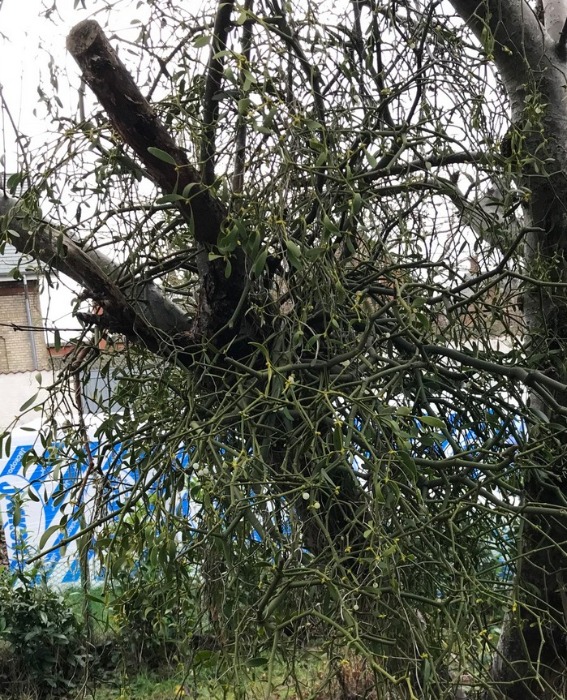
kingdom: Plantae
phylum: Tracheophyta
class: Magnoliopsida
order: Santalales
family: Viscaceae
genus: Viscum
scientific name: Viscum album
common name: Mistelten
